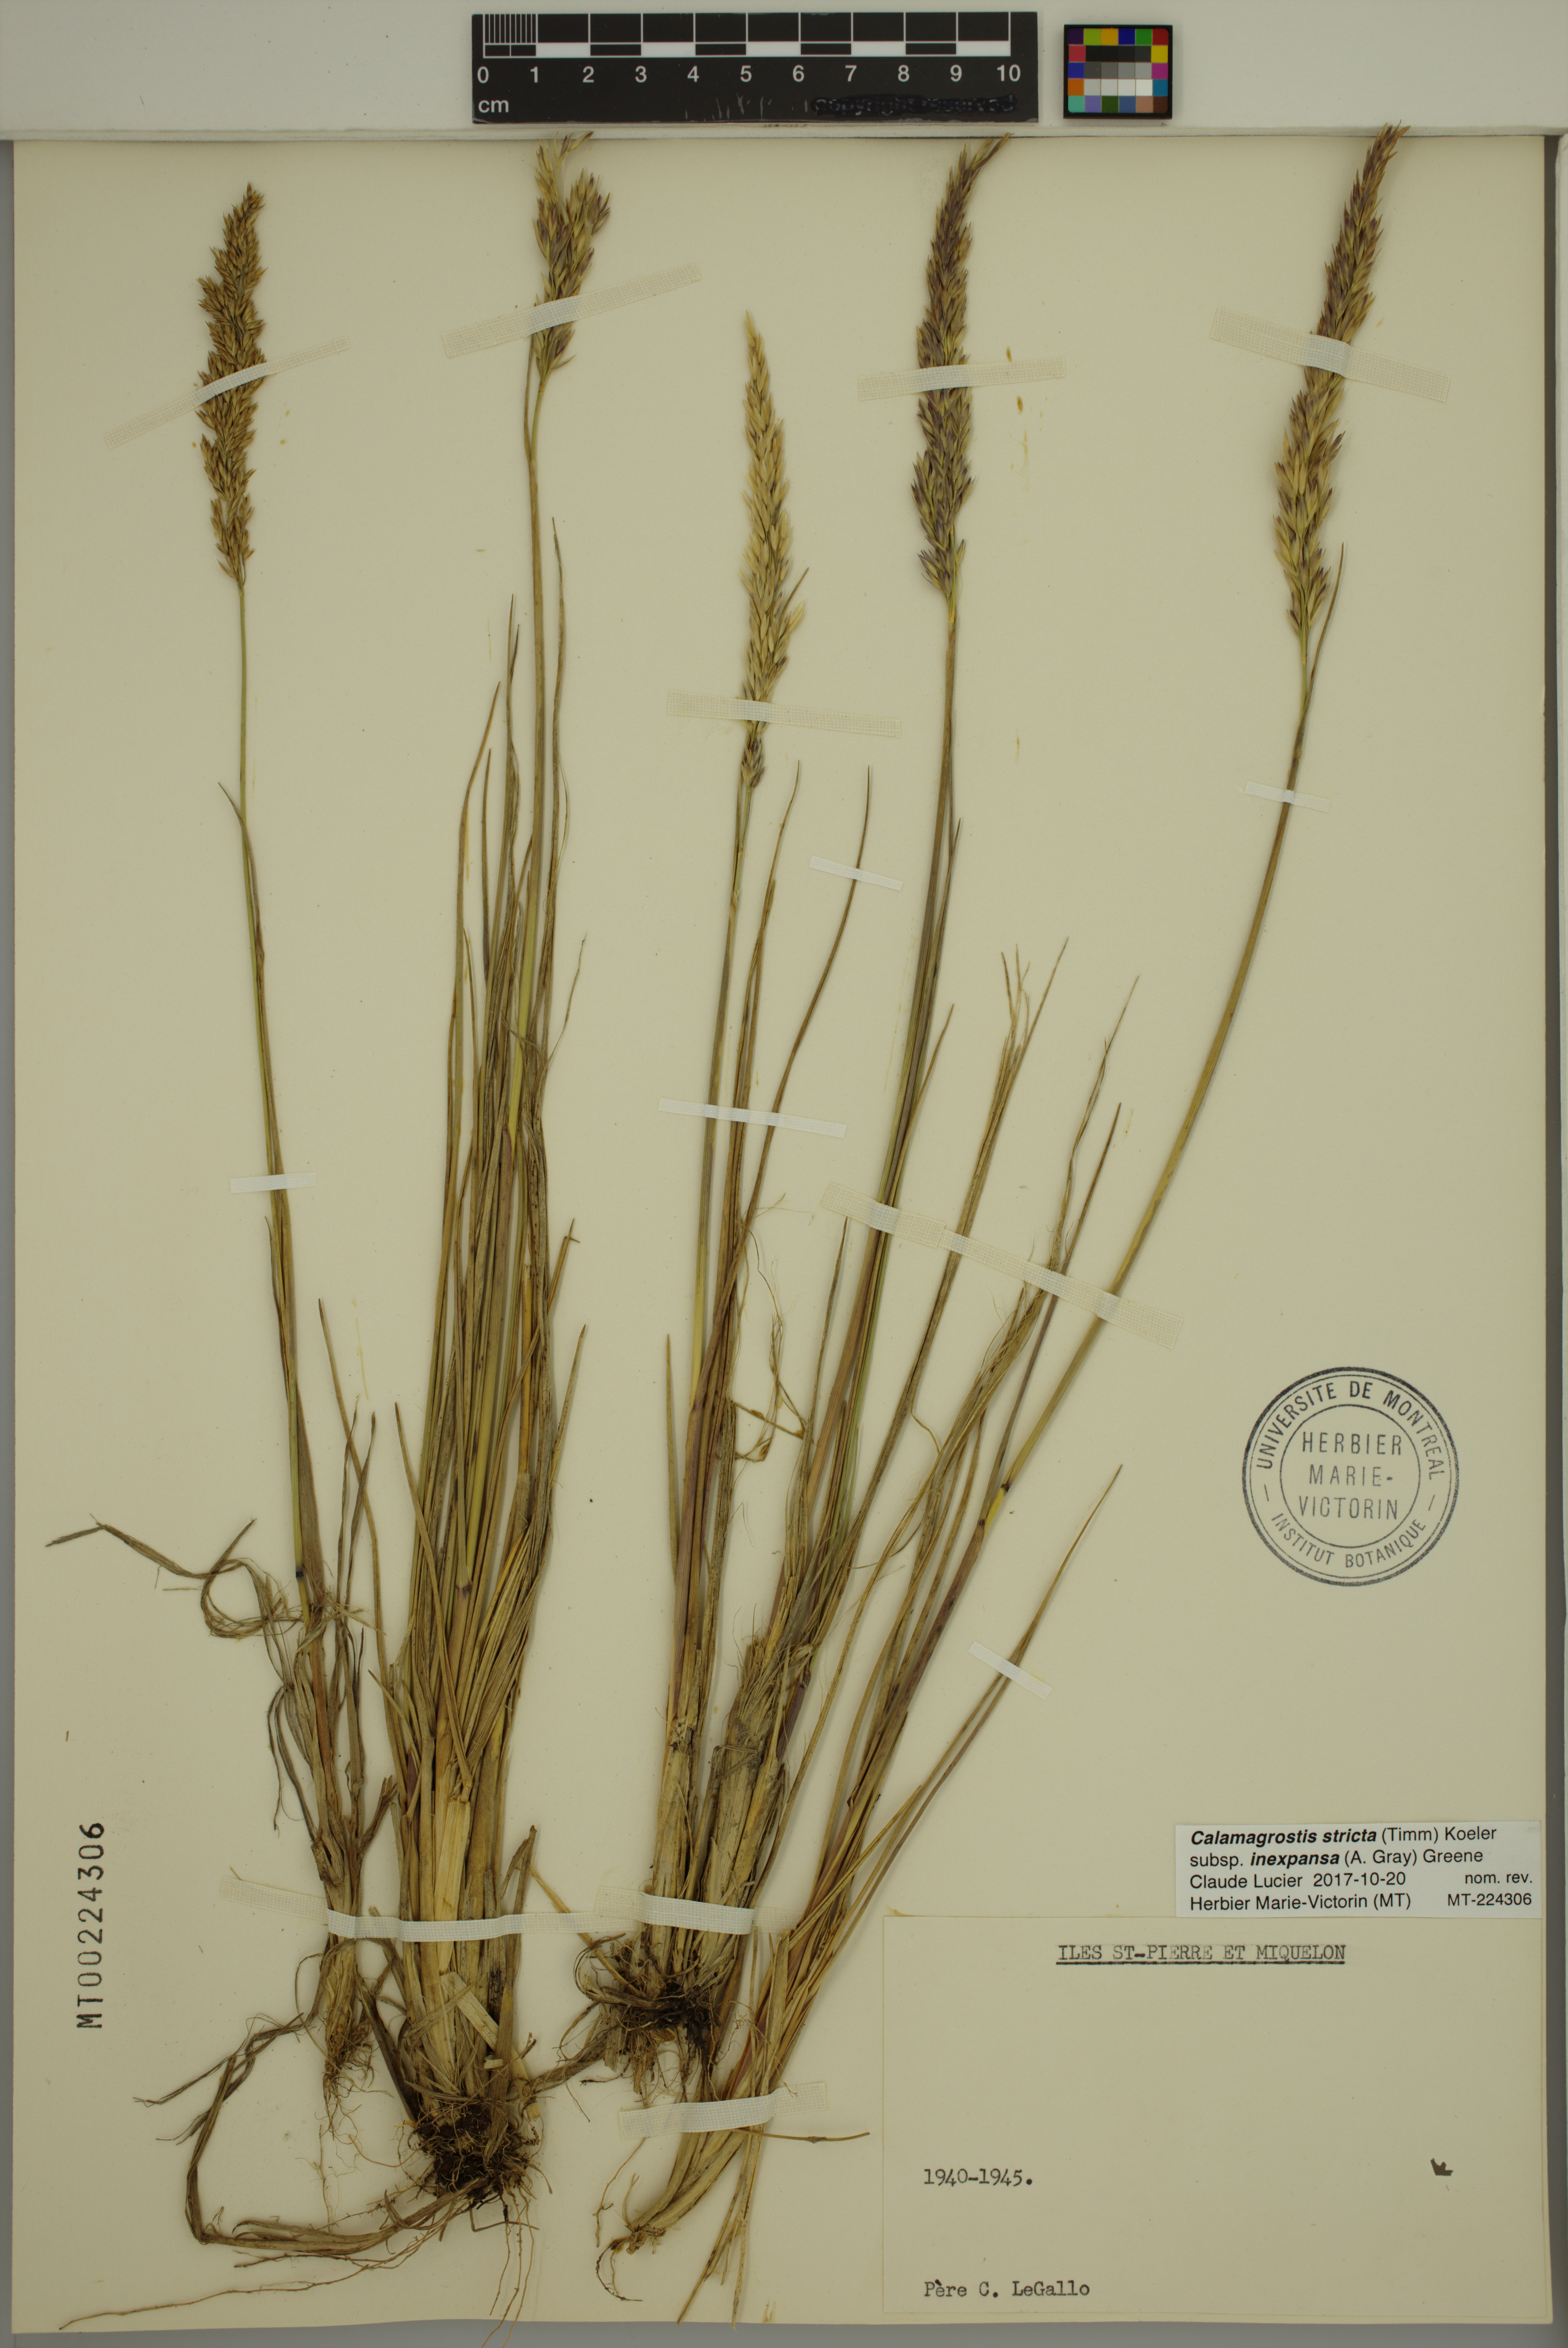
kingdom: Plantae
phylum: Tracheophyta
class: Liliopsida
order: Poales
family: Poaceae
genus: Calamagrostis
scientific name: Calamagrostis inexpansa
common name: Northern reedgrass
